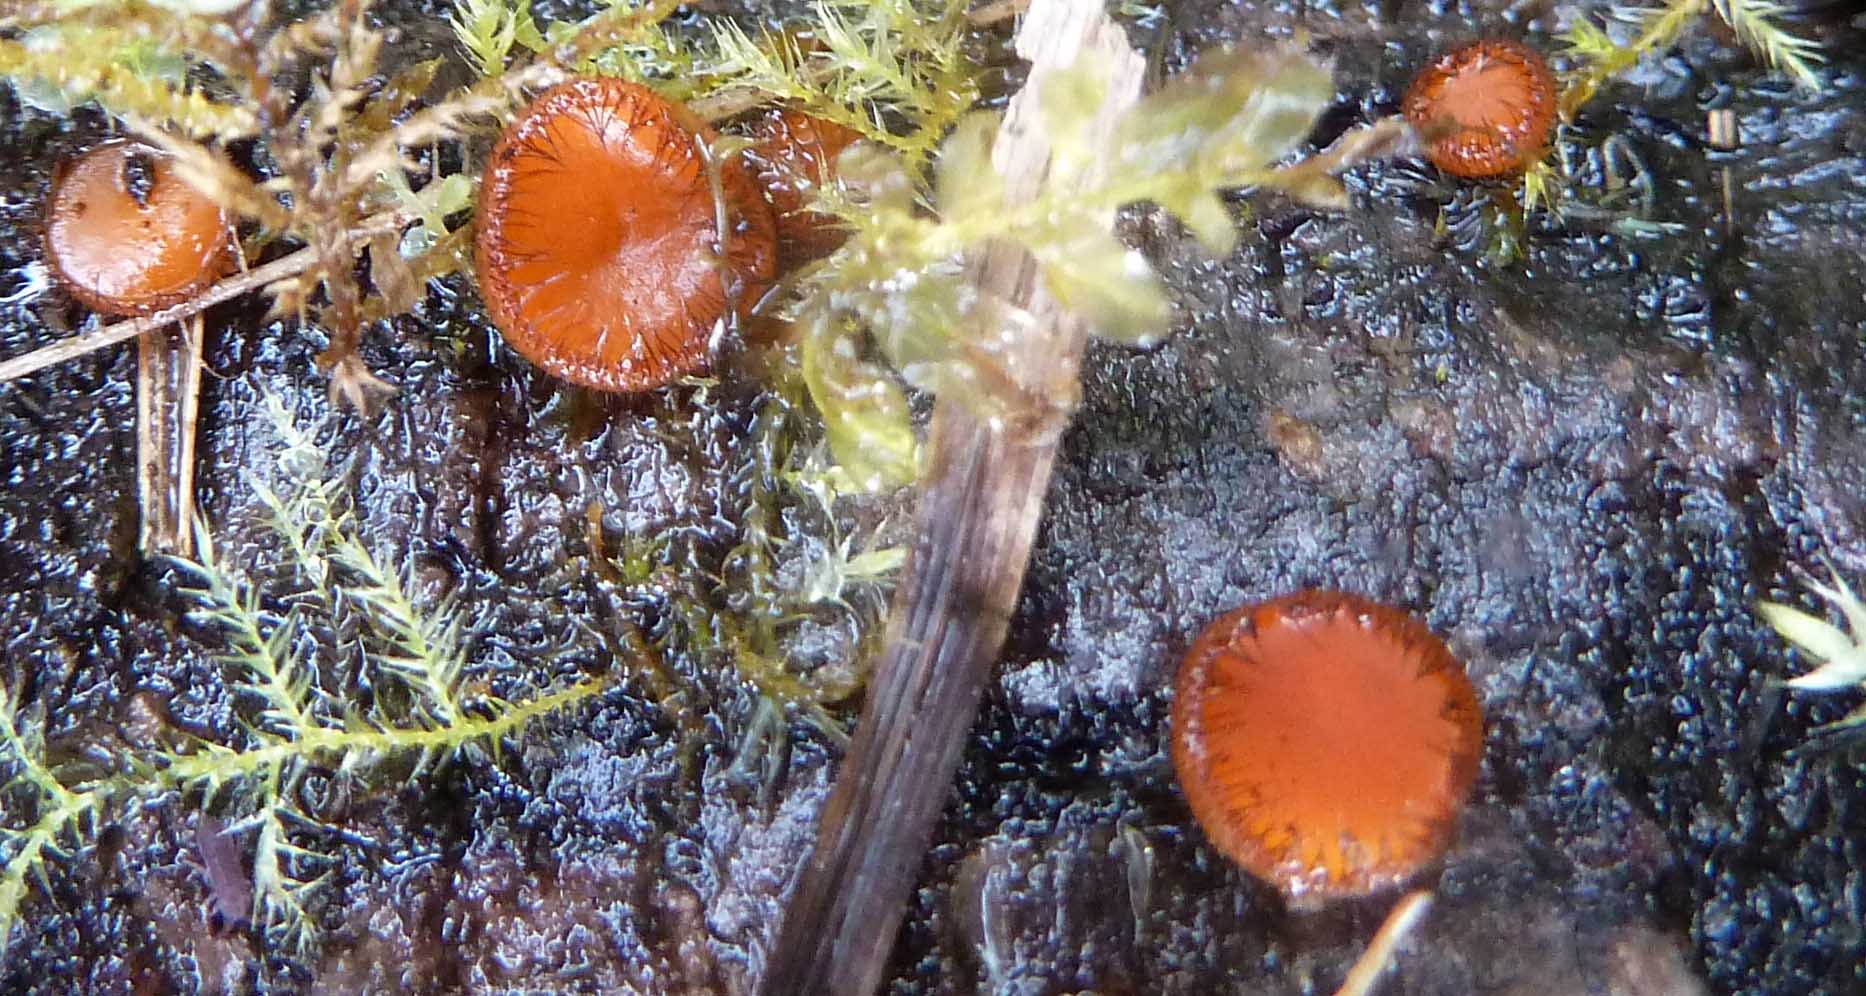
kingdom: Fungi
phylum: Ascomycota
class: Pezizomycetes
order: Pezizales
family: Pyronemataceae
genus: Scutellinia
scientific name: Scutellinia scutellata
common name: frynset skjoldbæger
